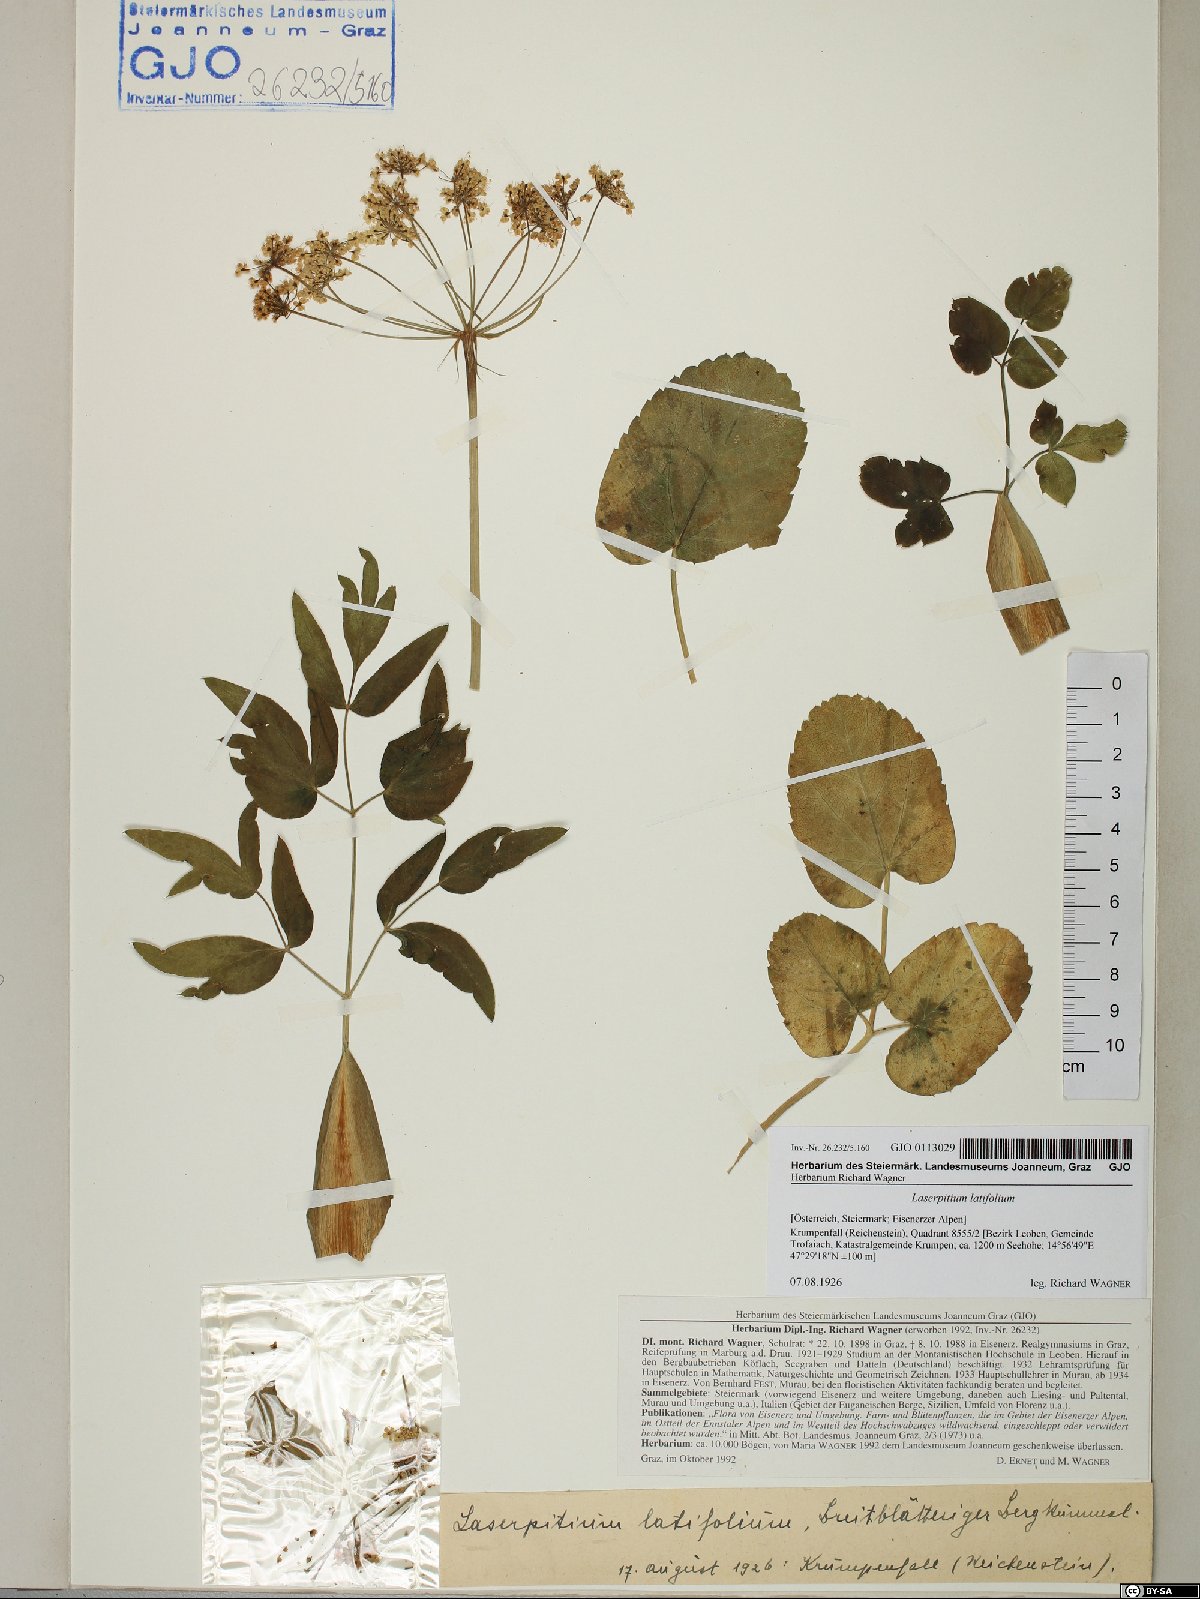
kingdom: Plantae
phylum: Tracheophyta
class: Magnoliopsida
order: Apiales
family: Apiaceae
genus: Laserpitium
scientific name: Laserpitium latifolium
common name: Broadleaf sermountain
